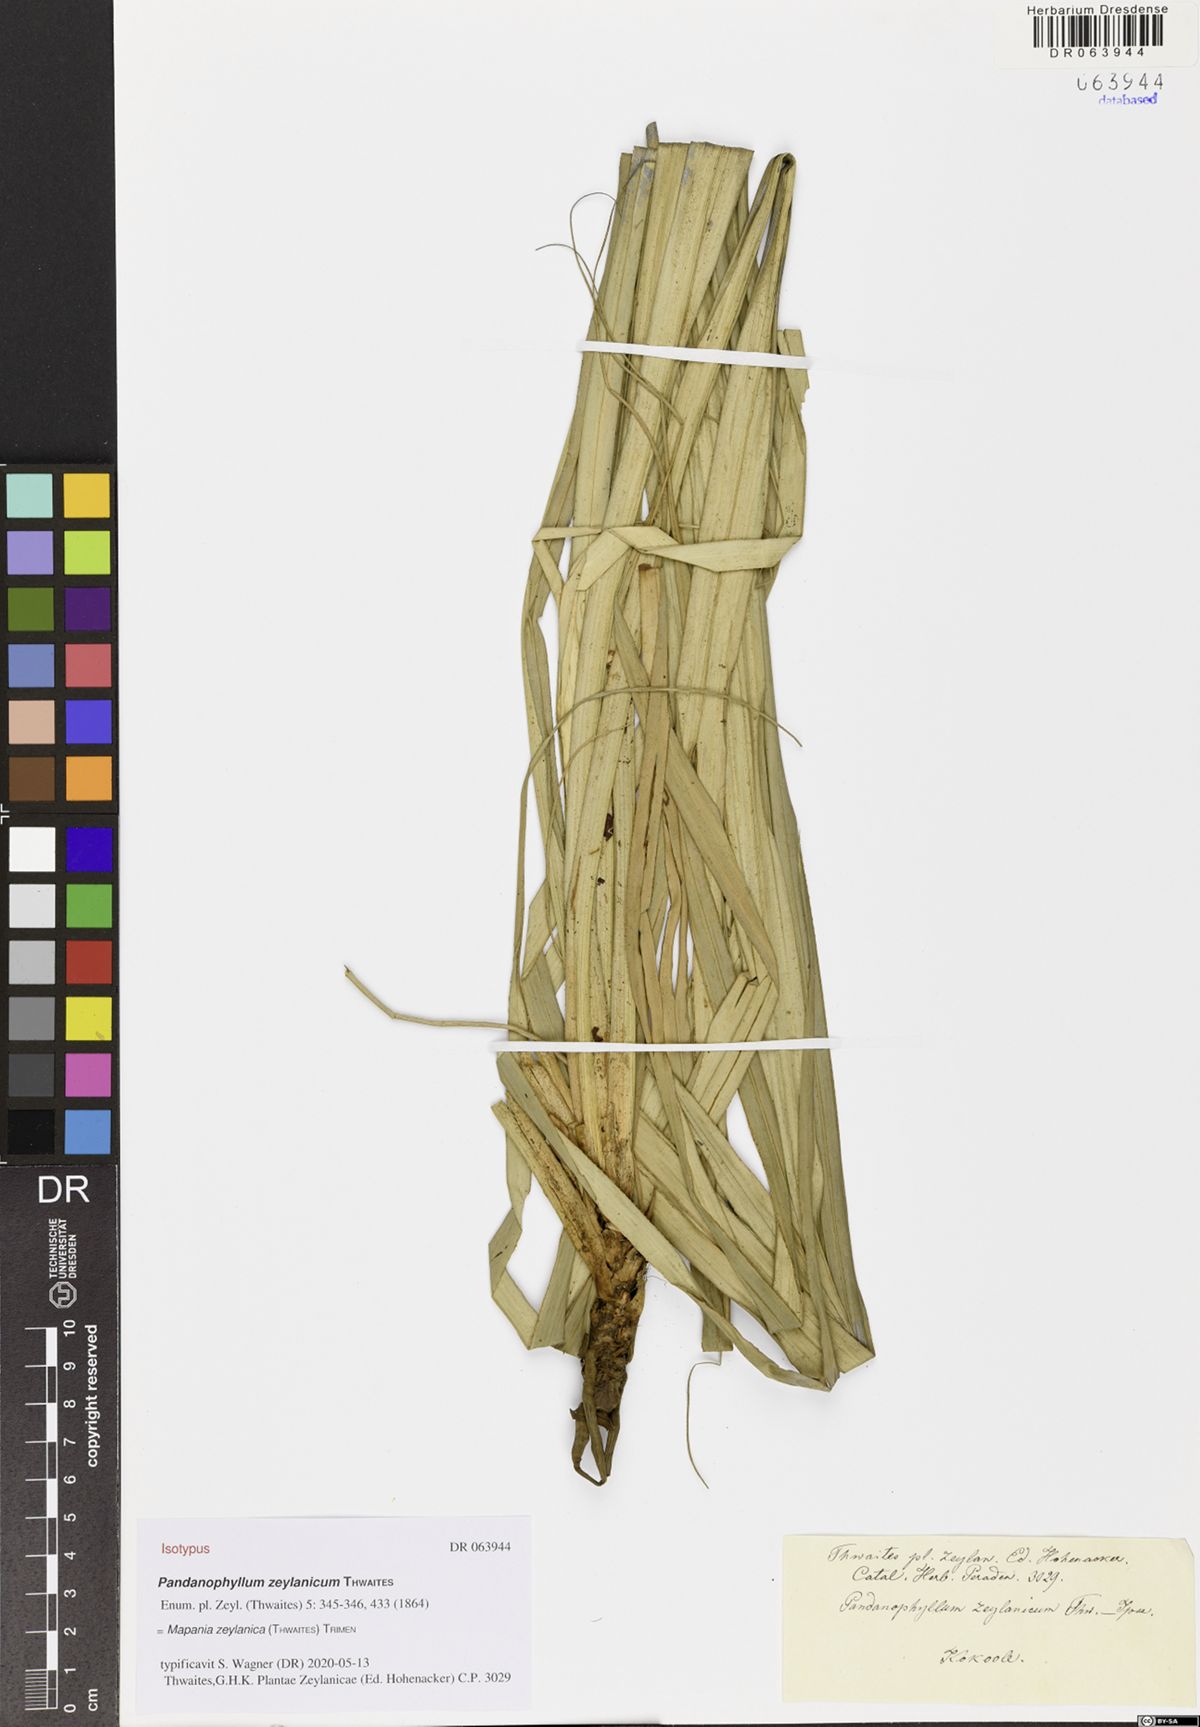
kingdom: Plantae
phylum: Tracheophyta
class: Liliopsida
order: Poales
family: Cyperaceae
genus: Mapania
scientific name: Mapania zeylanica
